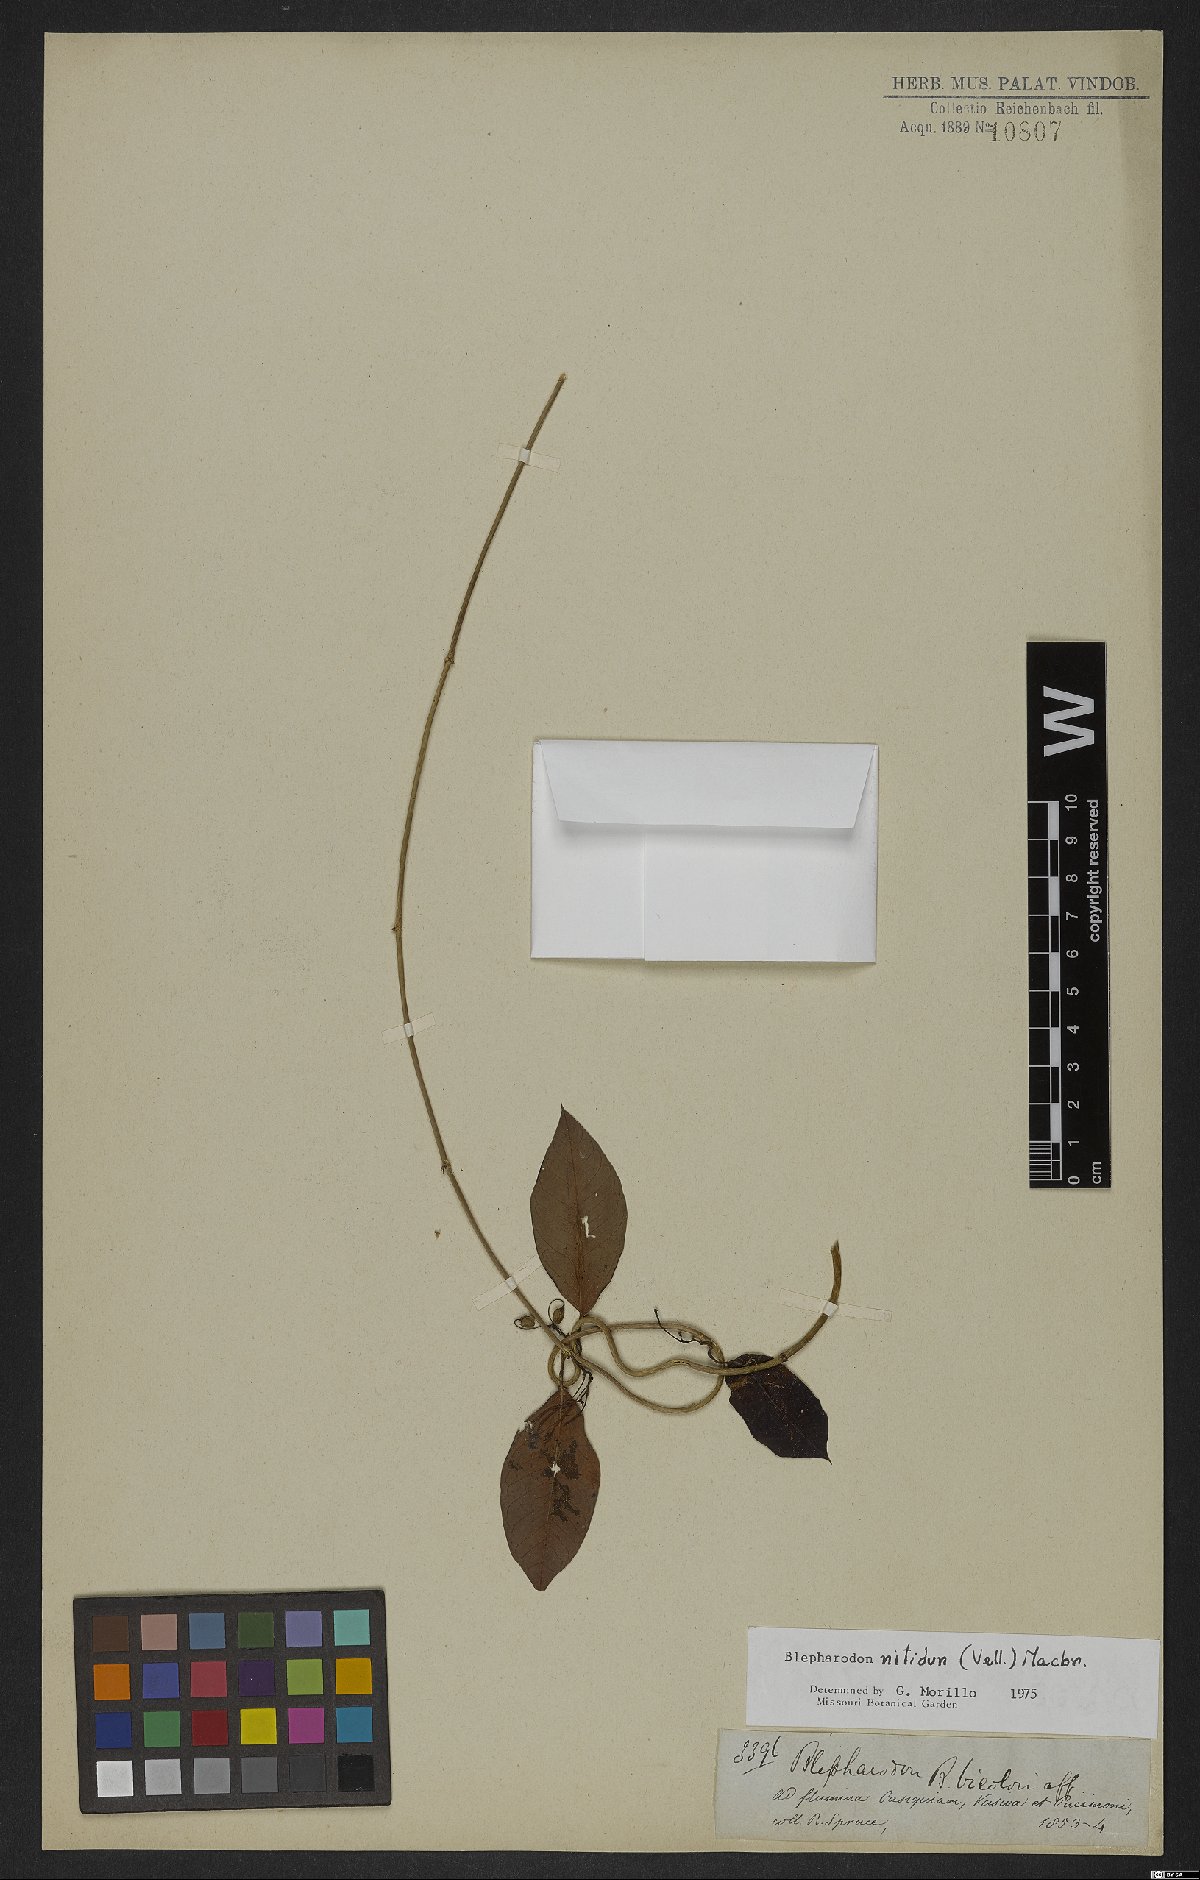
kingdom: Plantae
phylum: Tracheophyta
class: Magnoliopsida
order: Gentianales
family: Apocynaceae
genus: Blepharodon
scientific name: Blepharodon pictum
